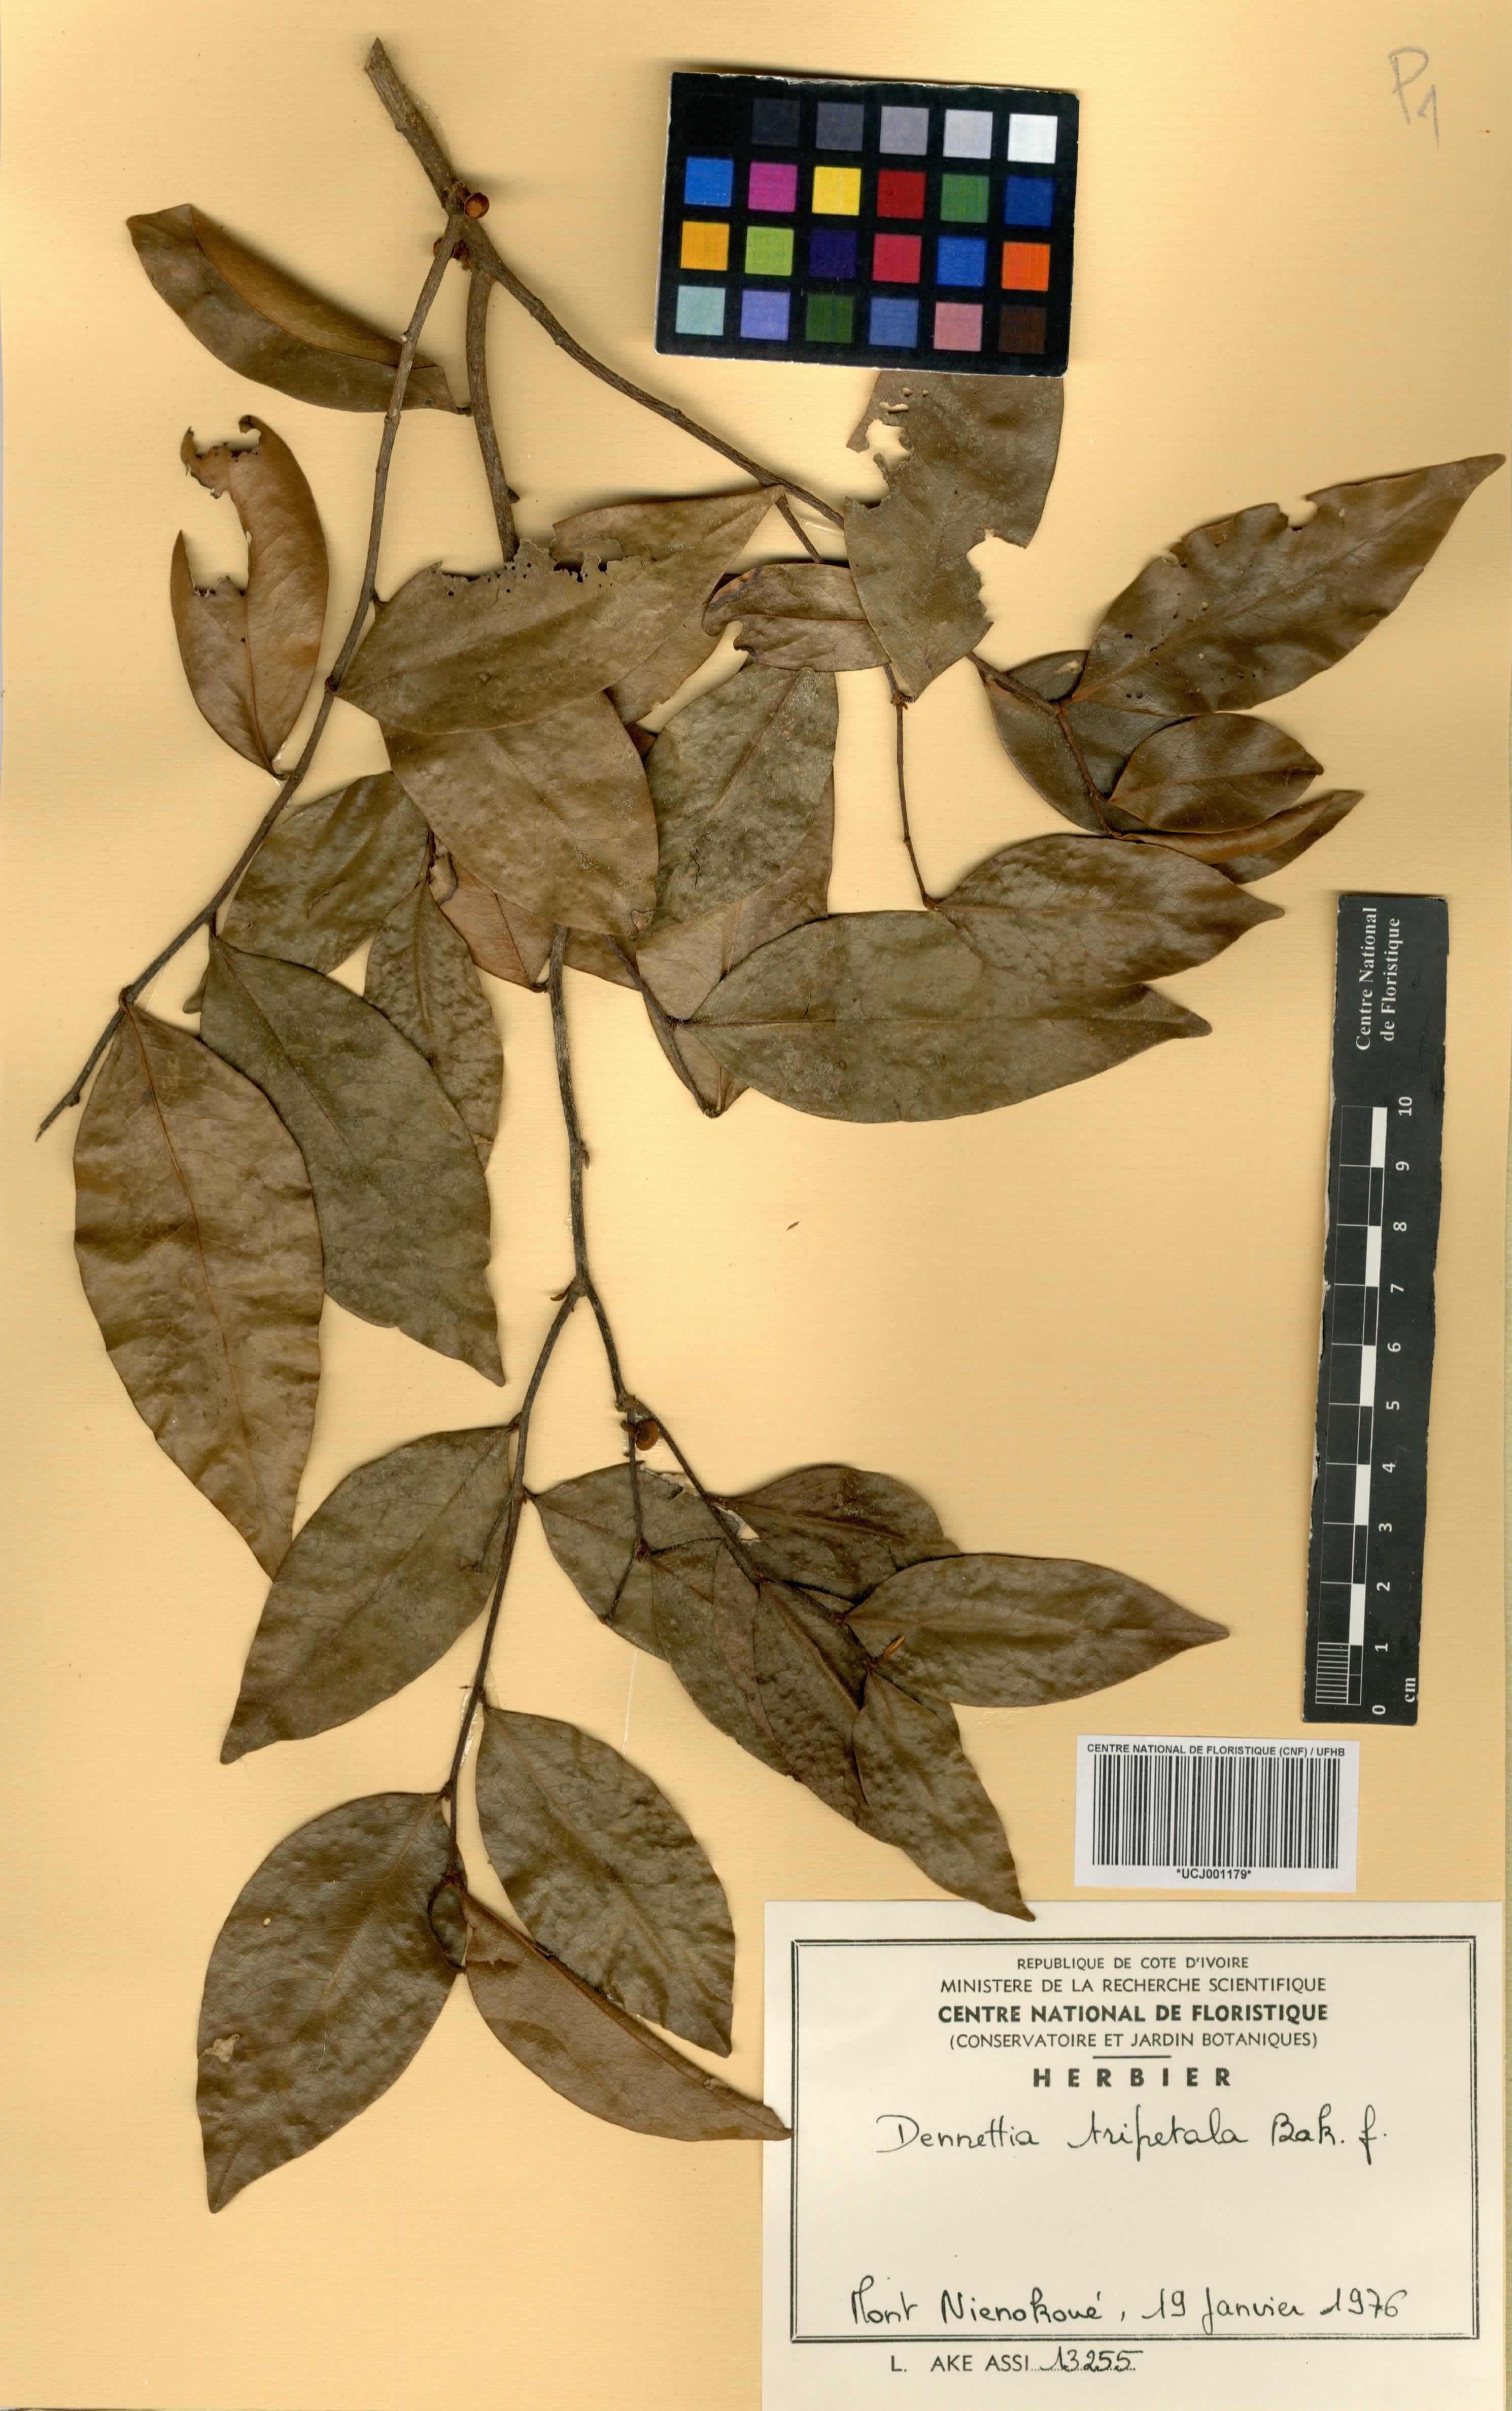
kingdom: Plantae
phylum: Tracheophyta
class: Magnoliopsida
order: Magnoliales
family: Annonaceae
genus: Uvariopsis
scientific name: Uvariopsis tripetala
